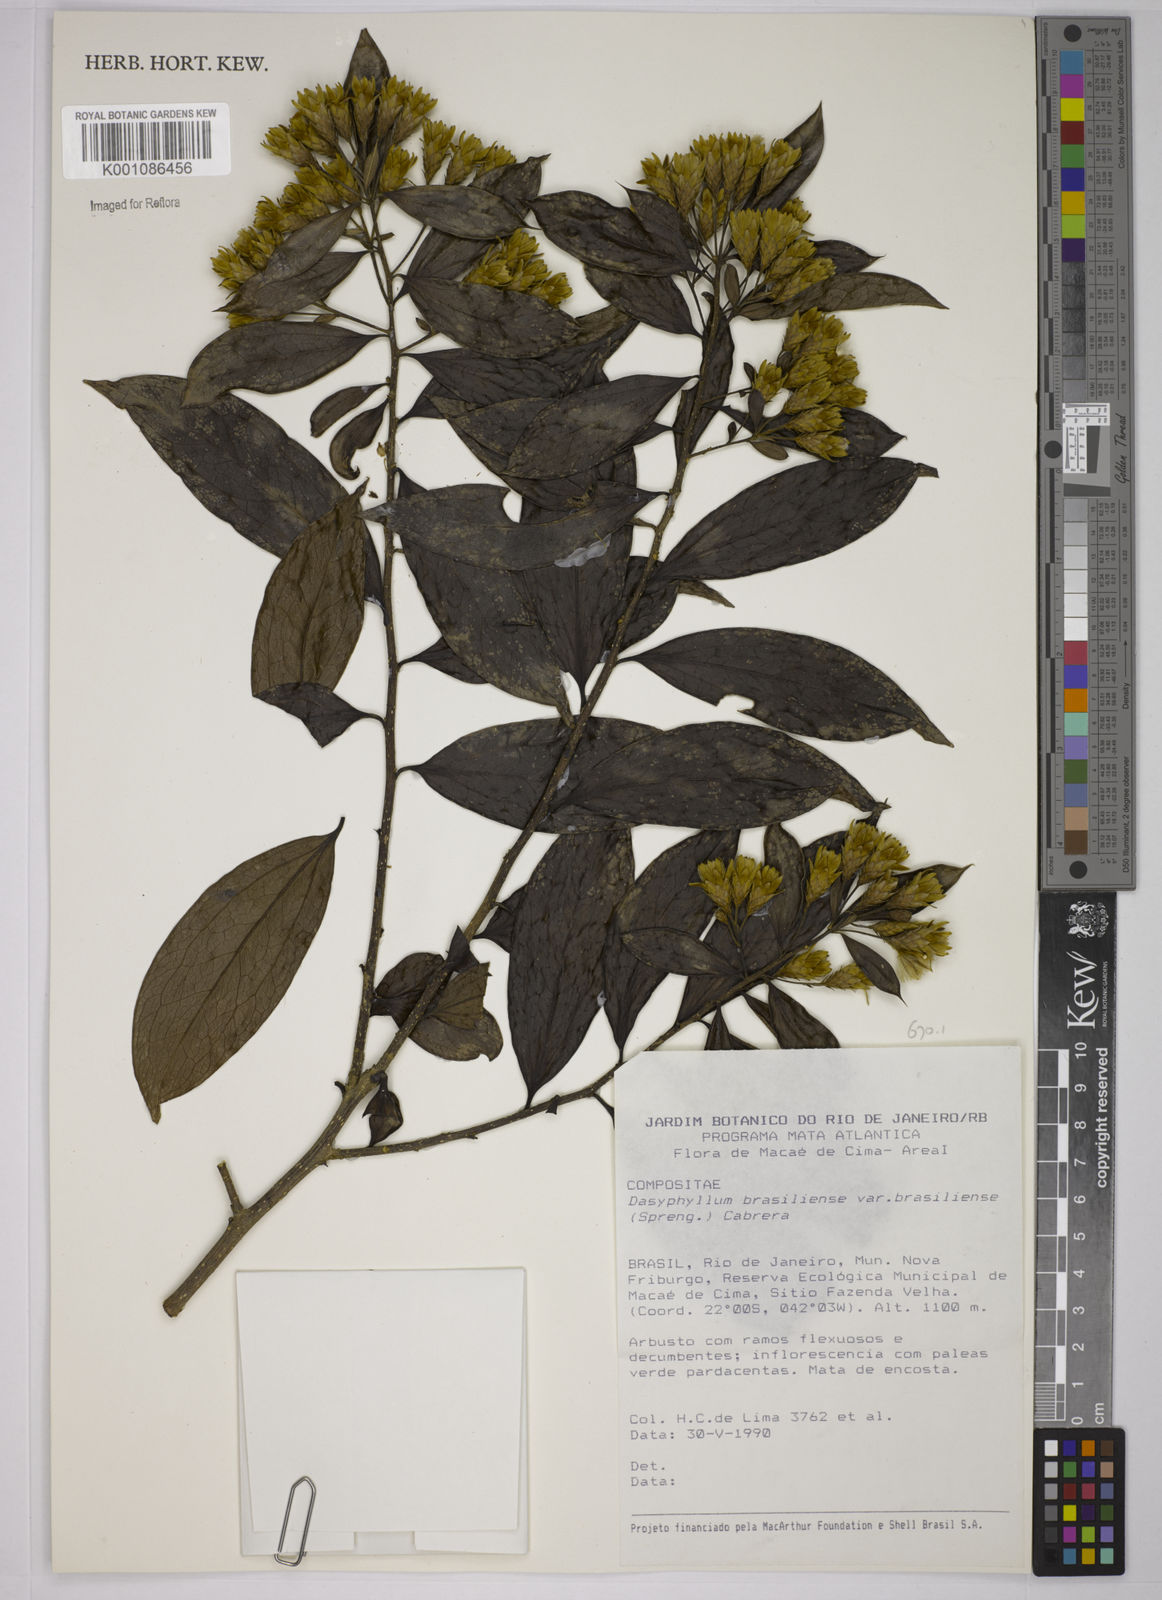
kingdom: Plantae
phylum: Tracheophyta
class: Magnoliopsida
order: Asterales
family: Asteraceae
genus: Dasyphyllum
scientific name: Dasyphyllum brasiliense
